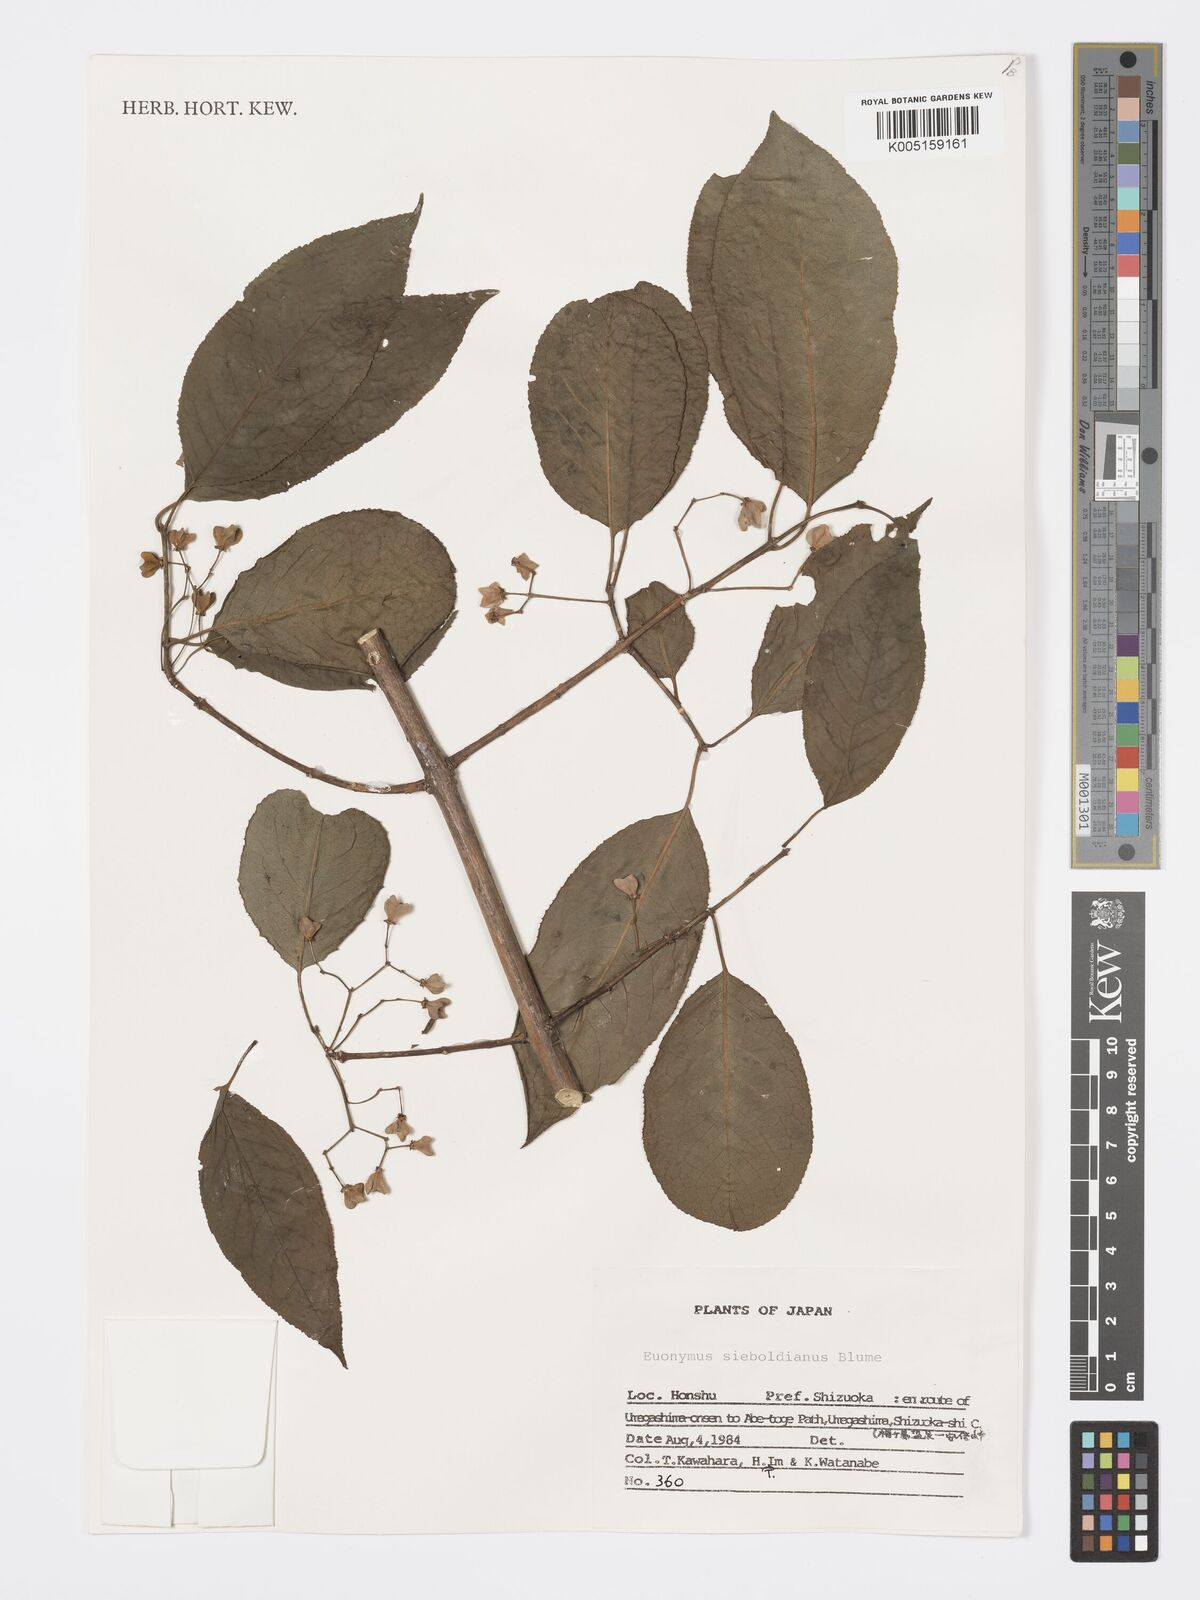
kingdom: Plantae
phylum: Tracheophyta
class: Magnoliopsida
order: Celastrales
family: Celastraceae
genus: Euonymus
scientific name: Euonymus hamiltonianus
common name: Hamilton's spindletree
